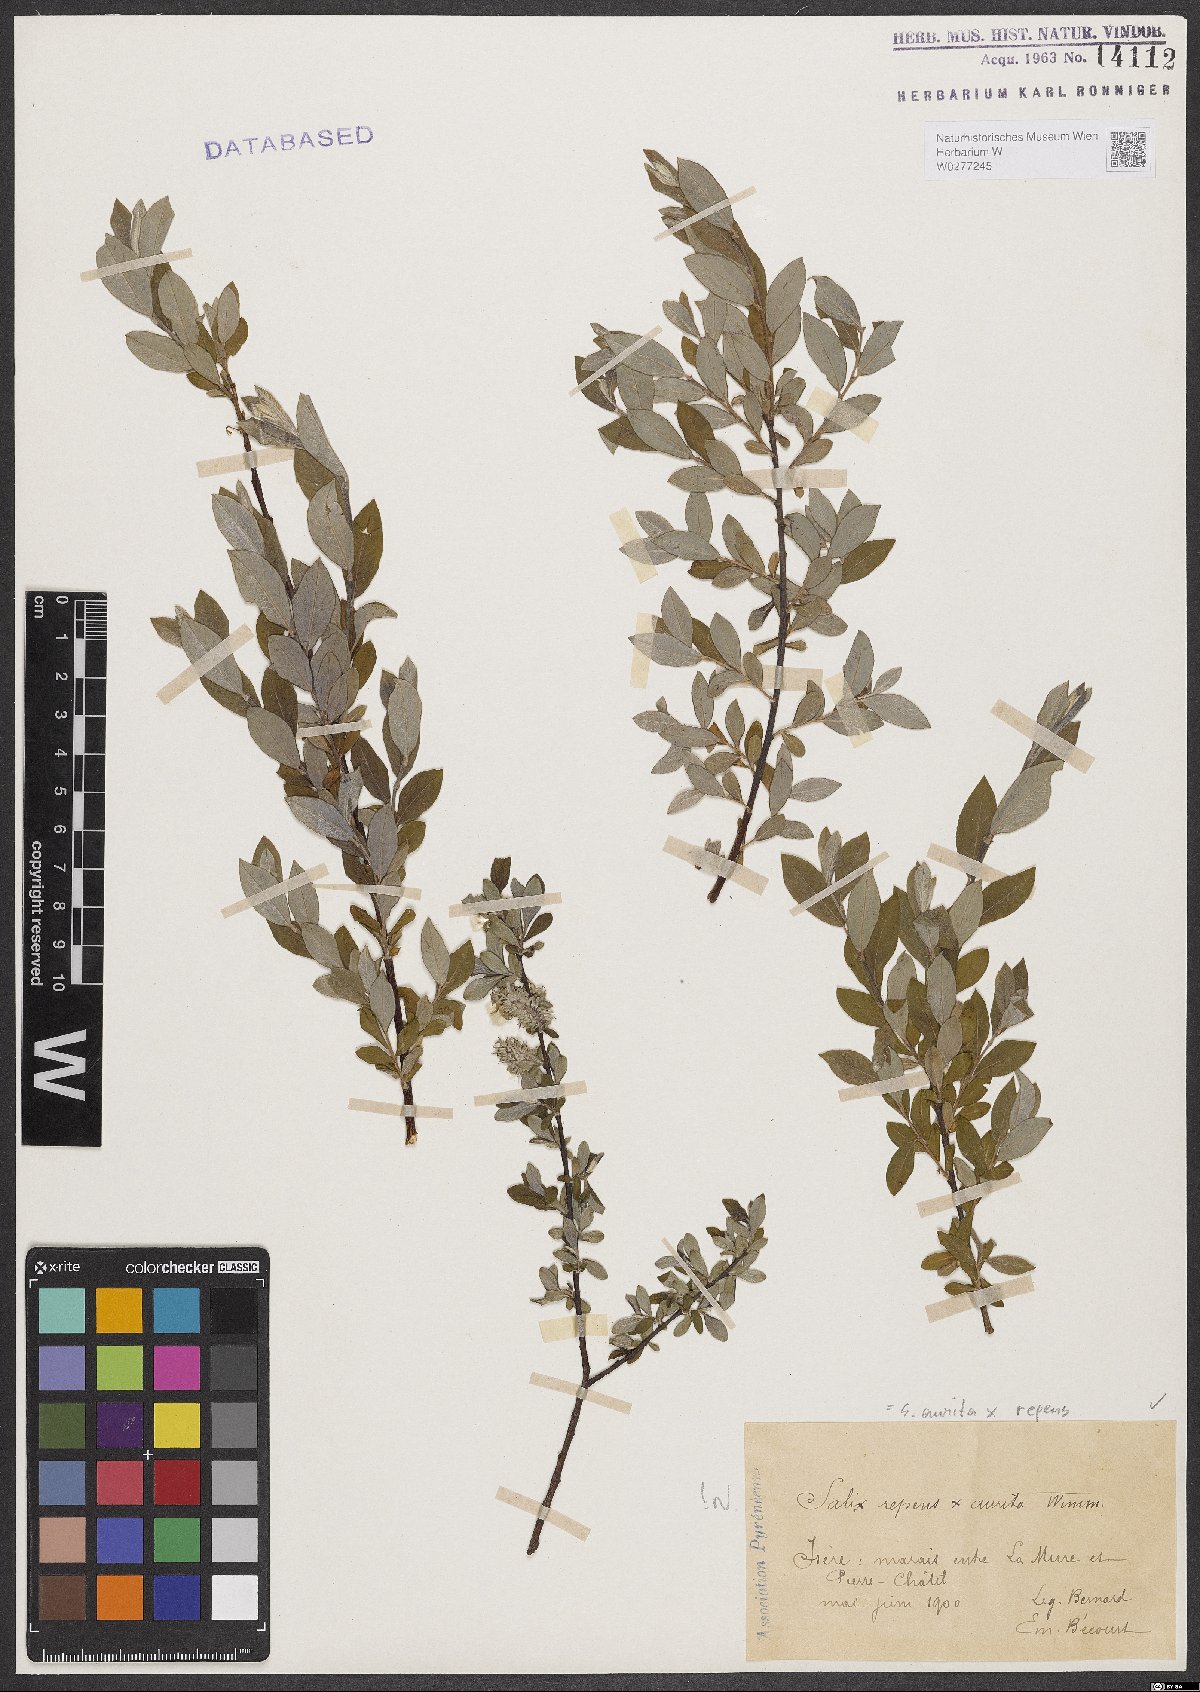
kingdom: Plantae
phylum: Tracheophyta
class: Magnoliopsida
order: Malpighiales
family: Salicaceae
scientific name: Salicaceae
